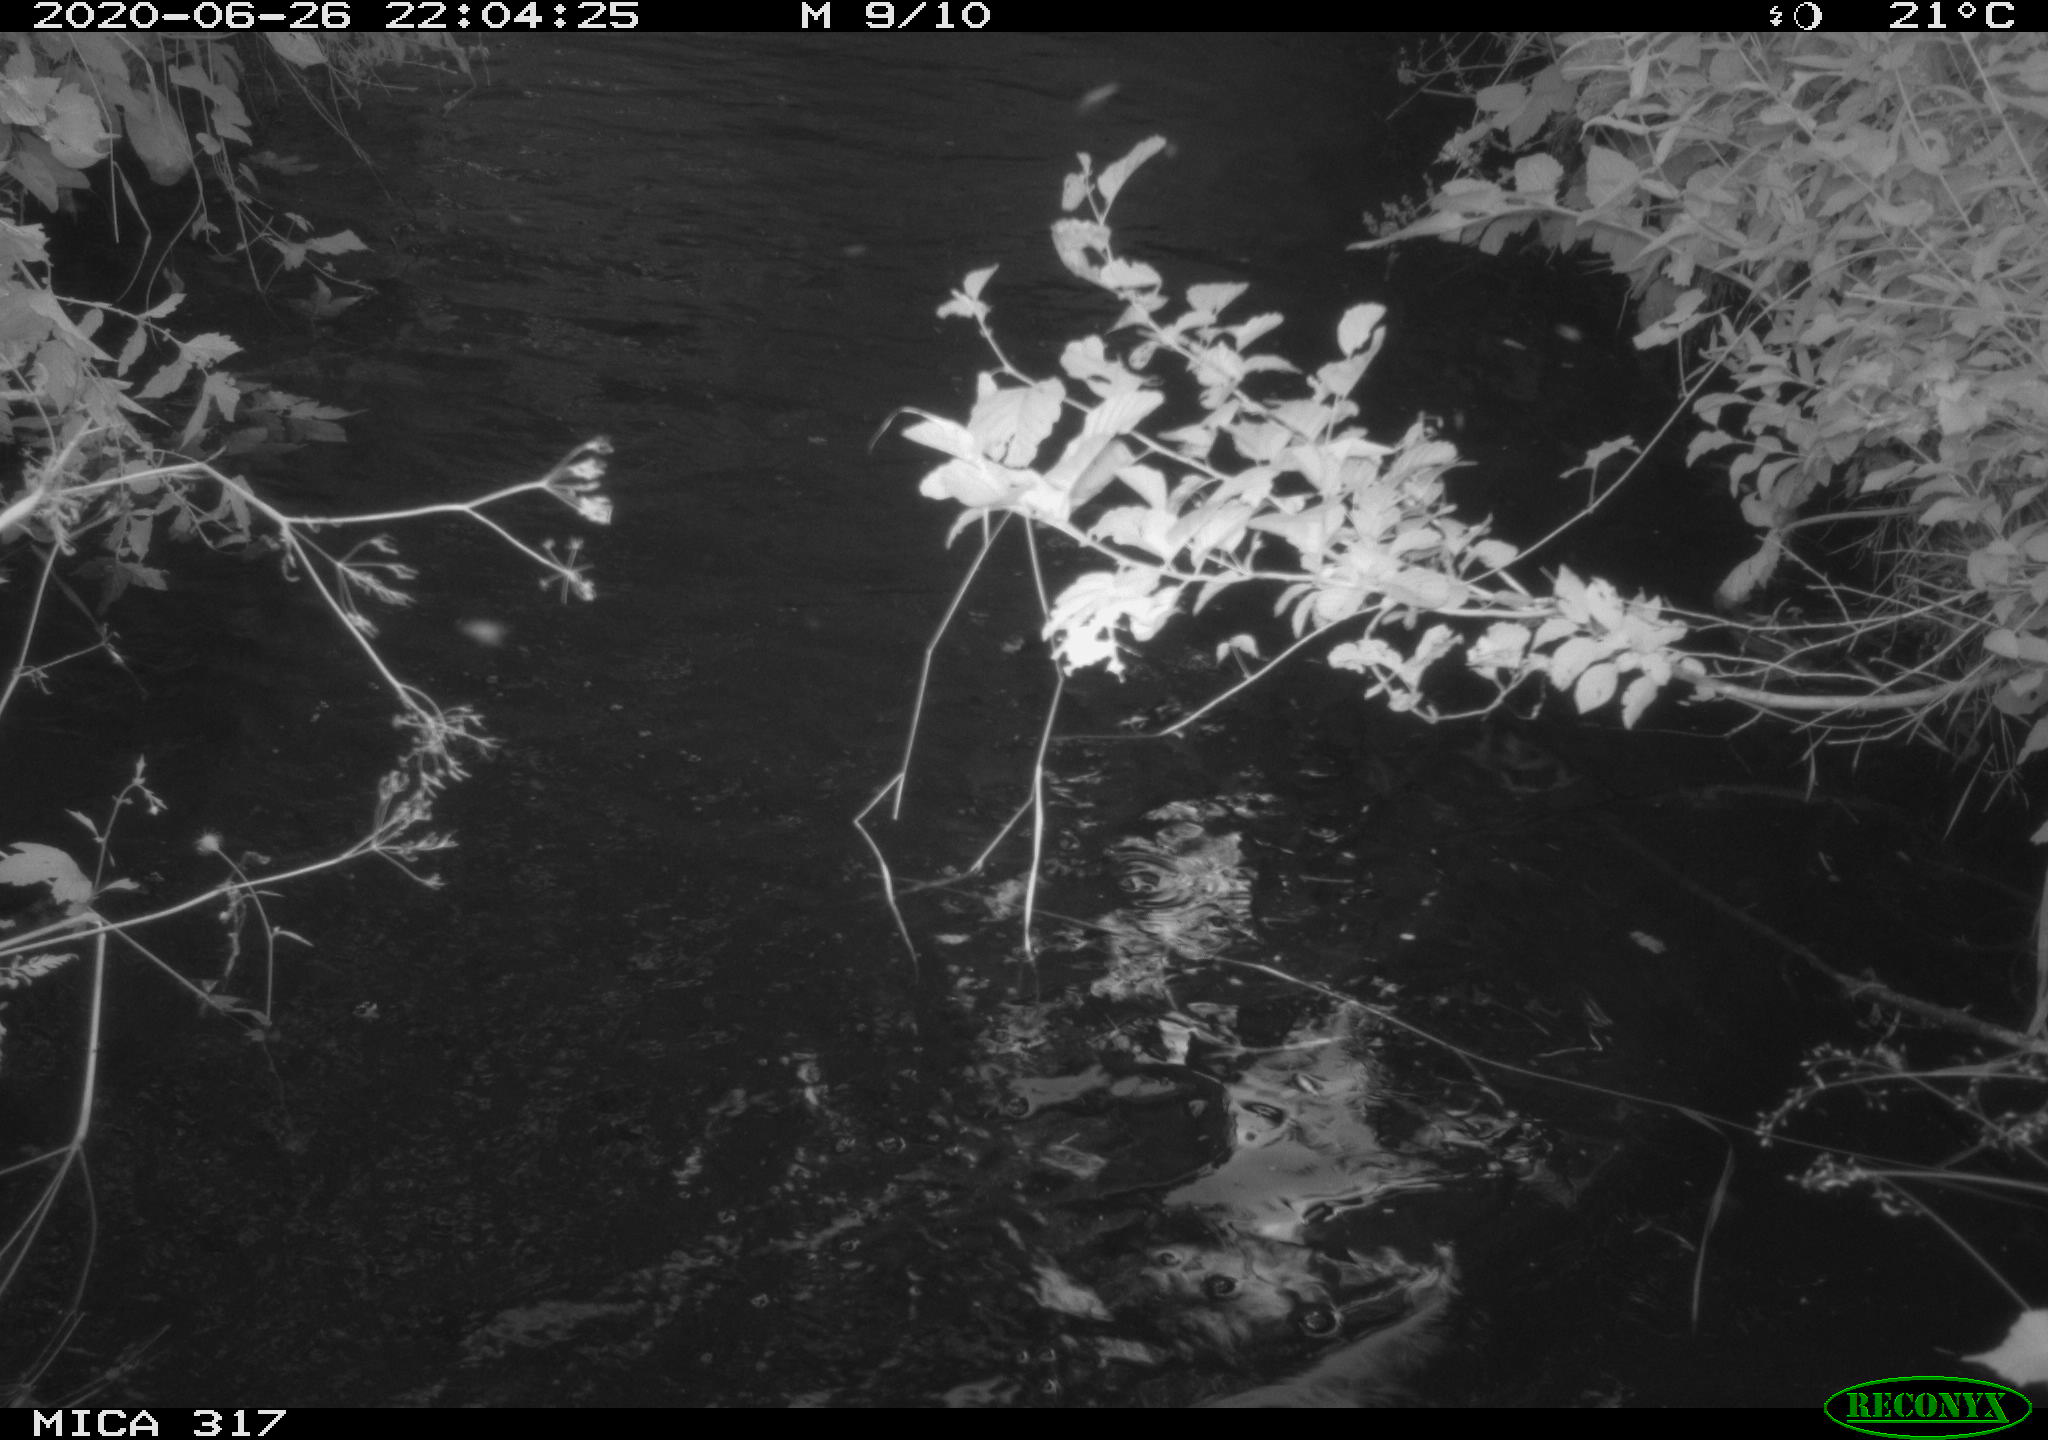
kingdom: Animalia
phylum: Chordata
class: Aves
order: Gruiformes
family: Rallidae
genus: Fulica
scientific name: Fulica atra
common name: Eurasian coot
